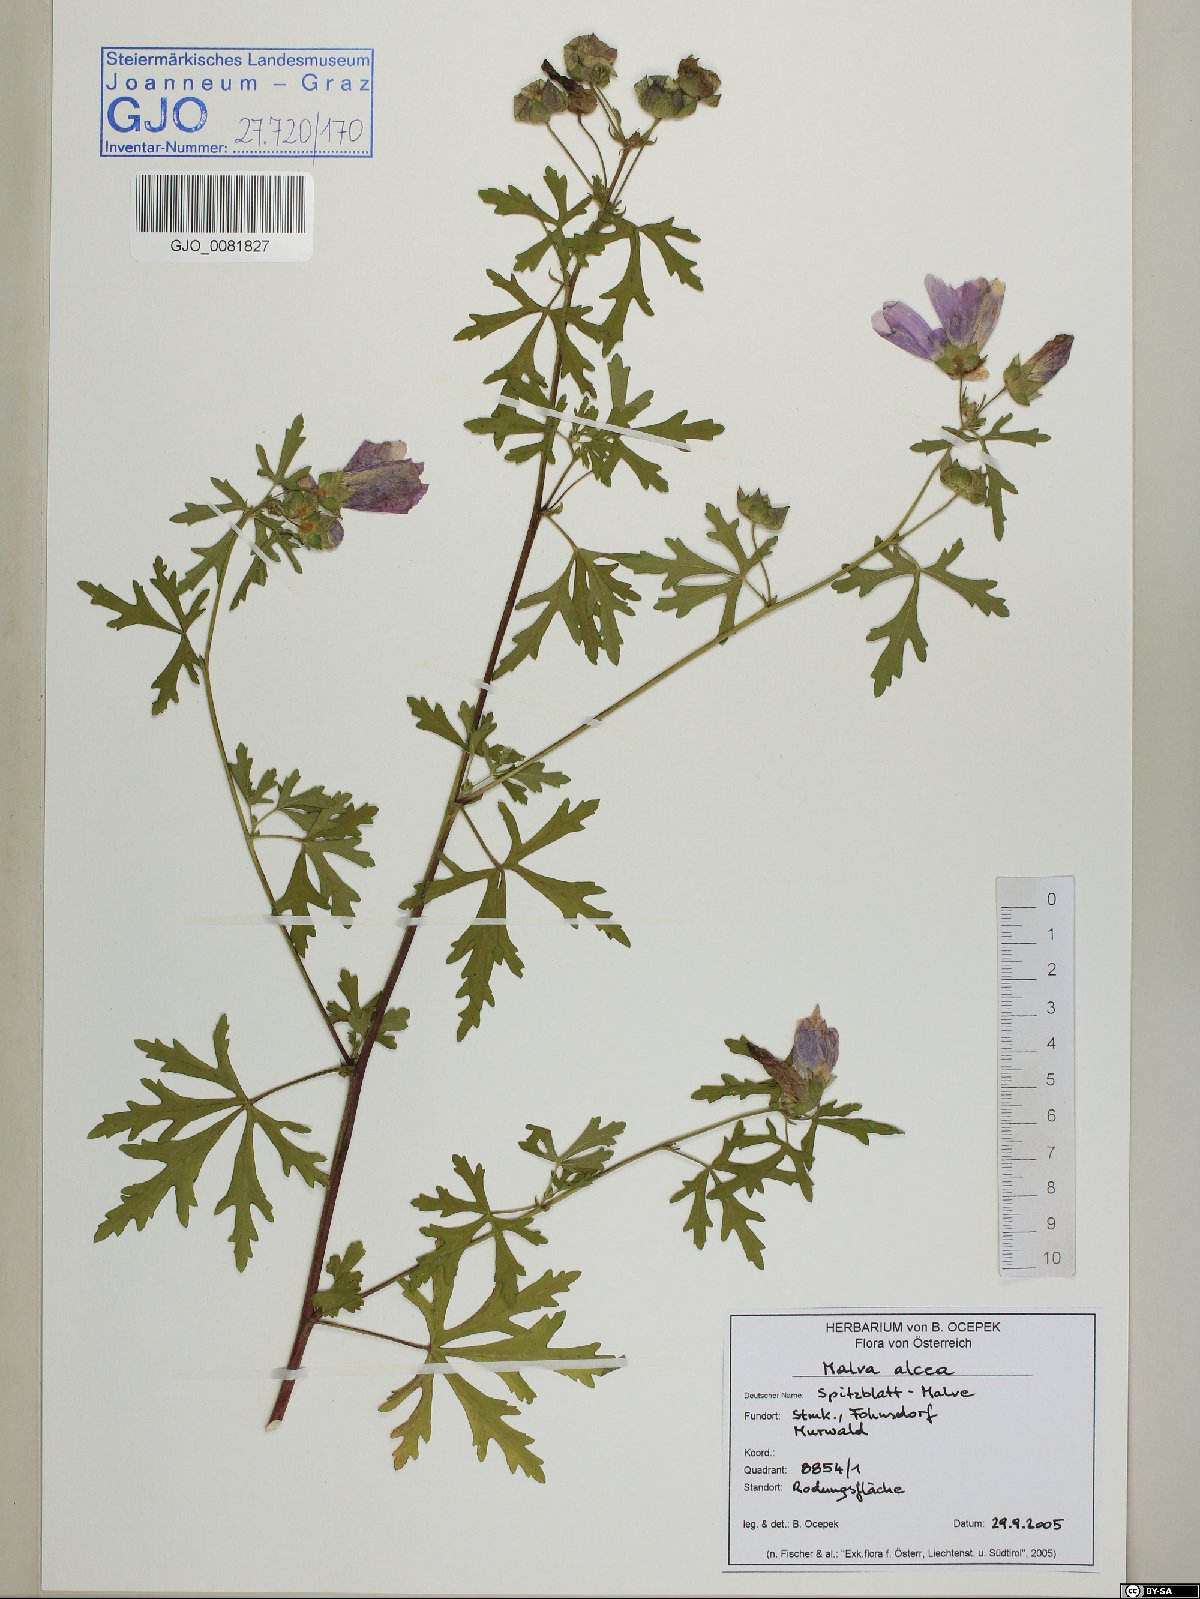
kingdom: Plantae
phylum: Tracheophyta
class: Magnoliopsida
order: Malvales
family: Malvaceae
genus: Malva
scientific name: Malva neglecta
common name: Common mallow
